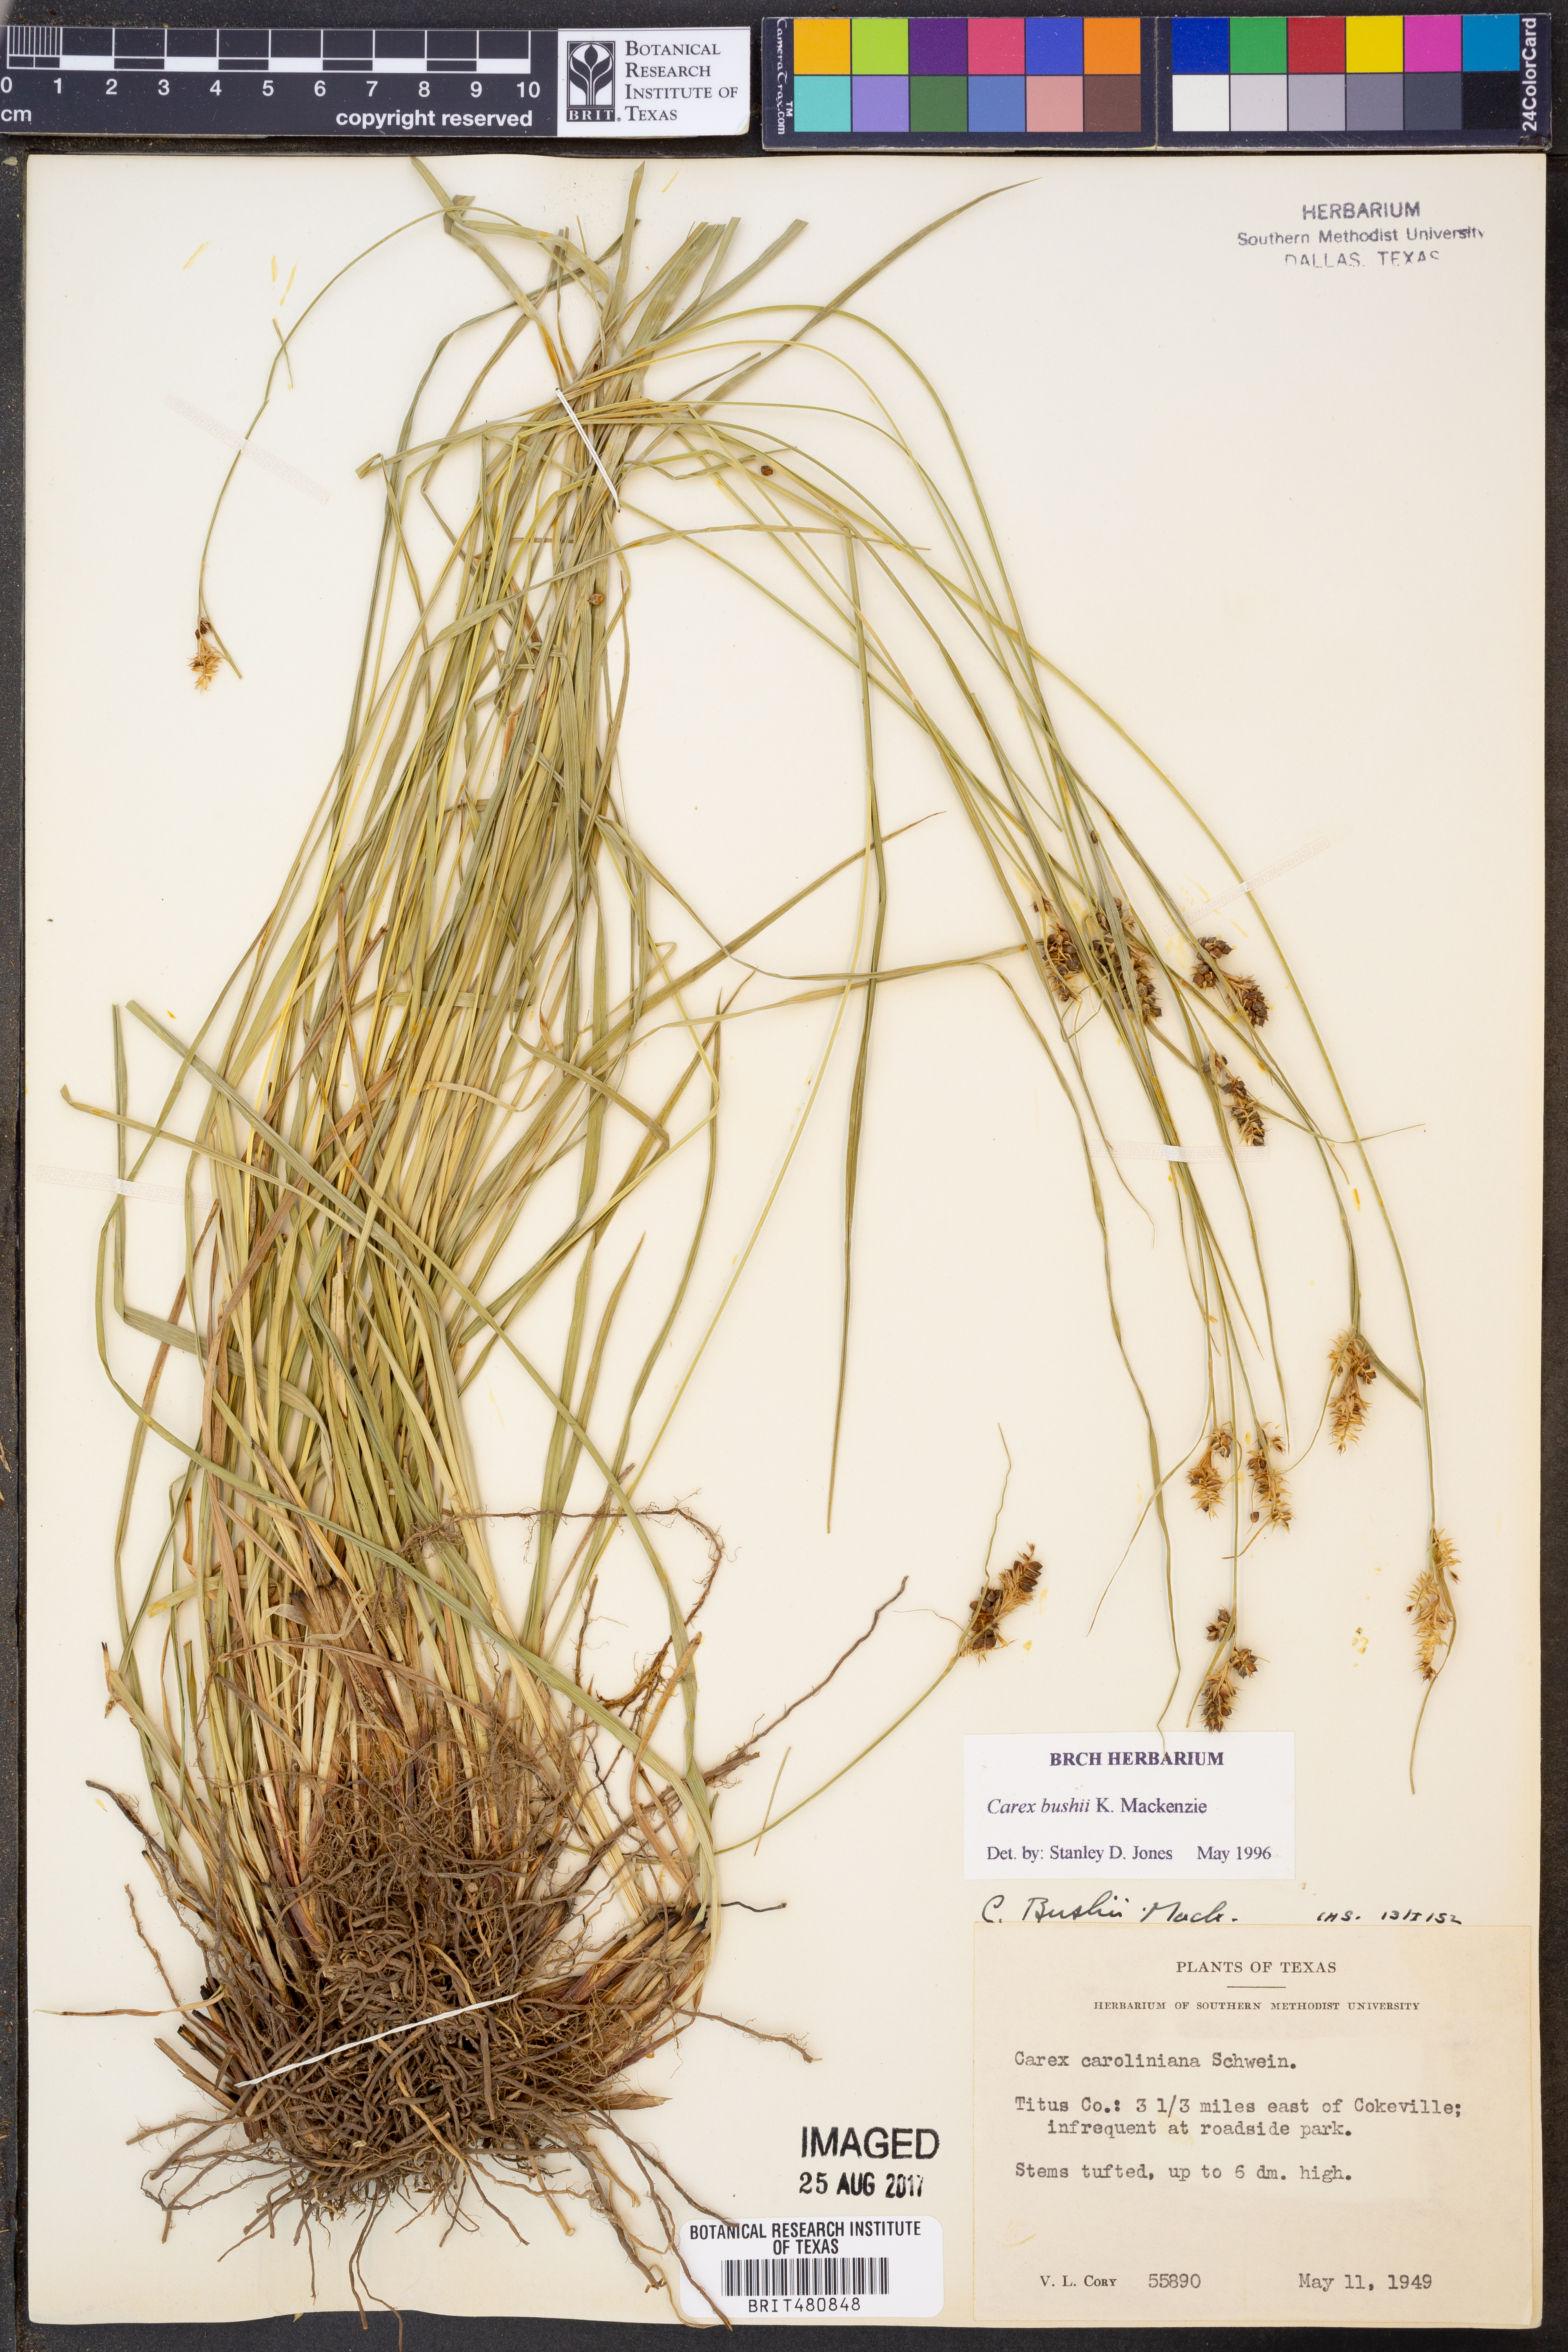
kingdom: Plantae
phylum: Tracheophyta
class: Liliopsida
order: Poales
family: Cyperaceae
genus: Carex
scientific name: Carex bushii
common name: Bush's sedge
